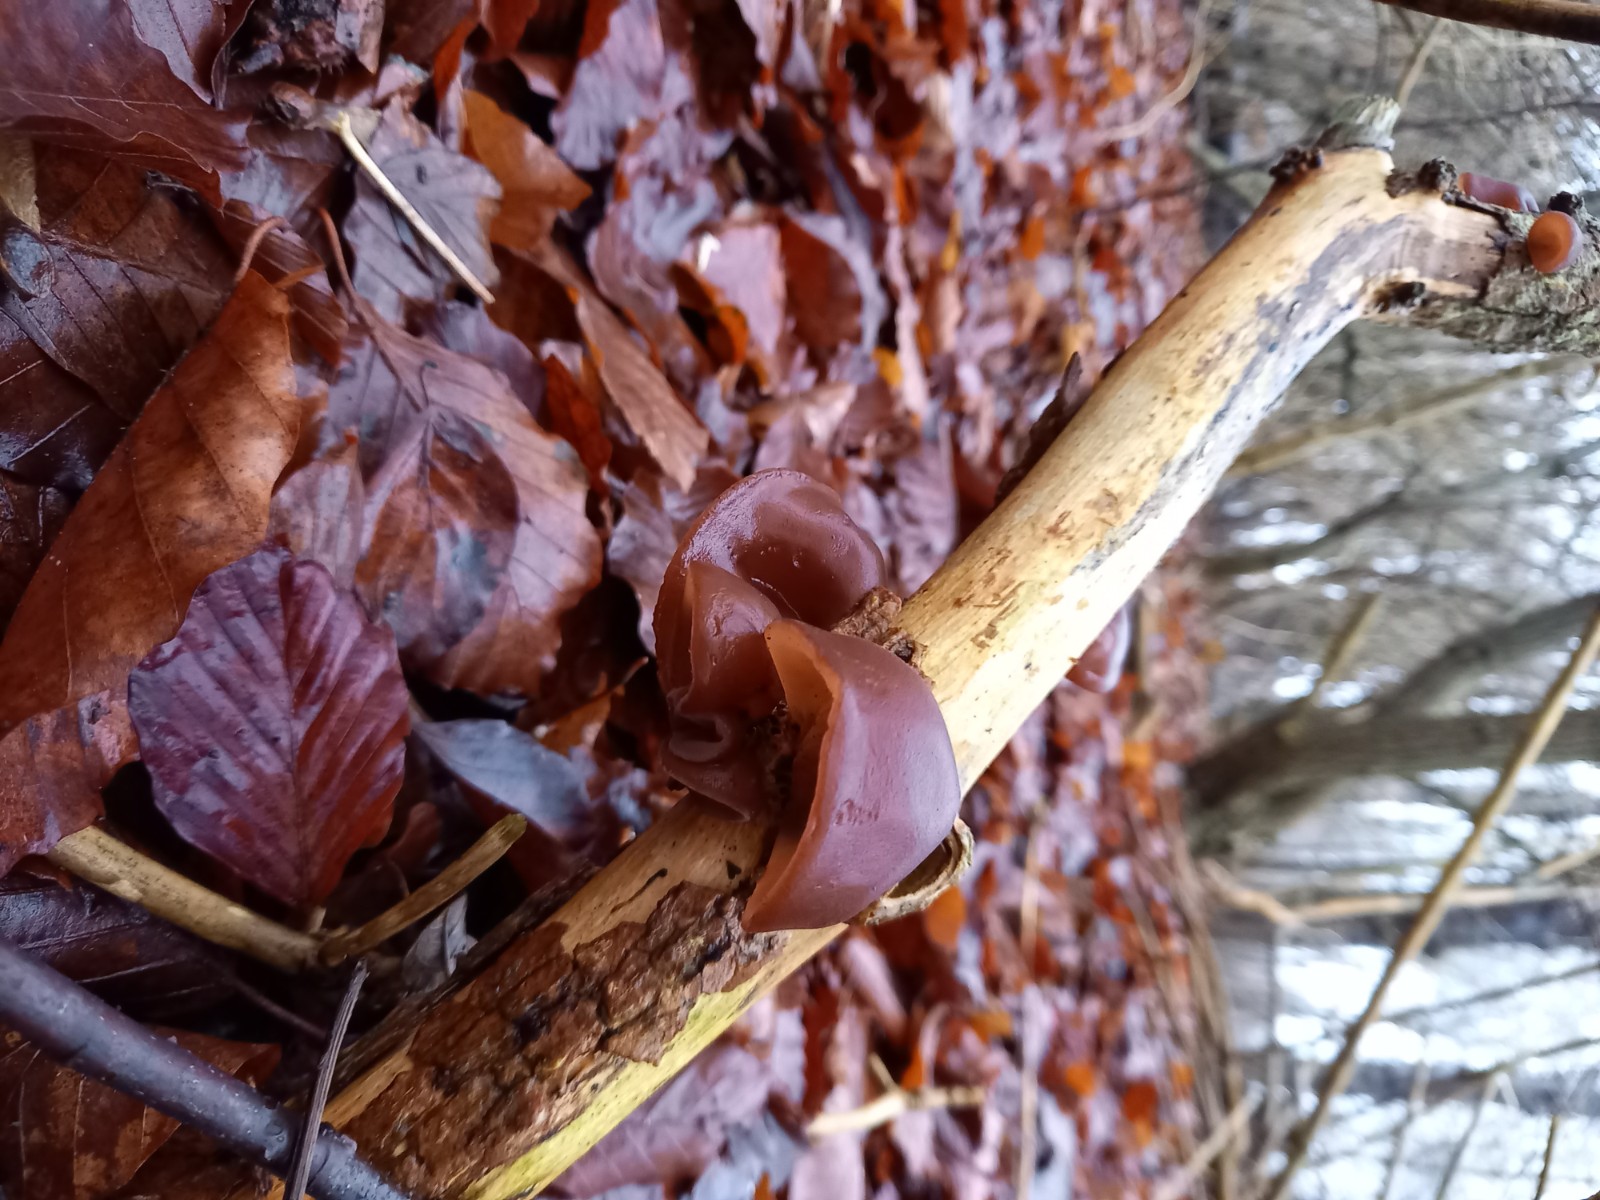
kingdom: Fungi
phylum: Basidiomycota
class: Agaricomycetes
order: Auriculariales
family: Auriculariaceae
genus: Auricularia
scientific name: Auricularia auricula-judae
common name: almindelig judasøre
